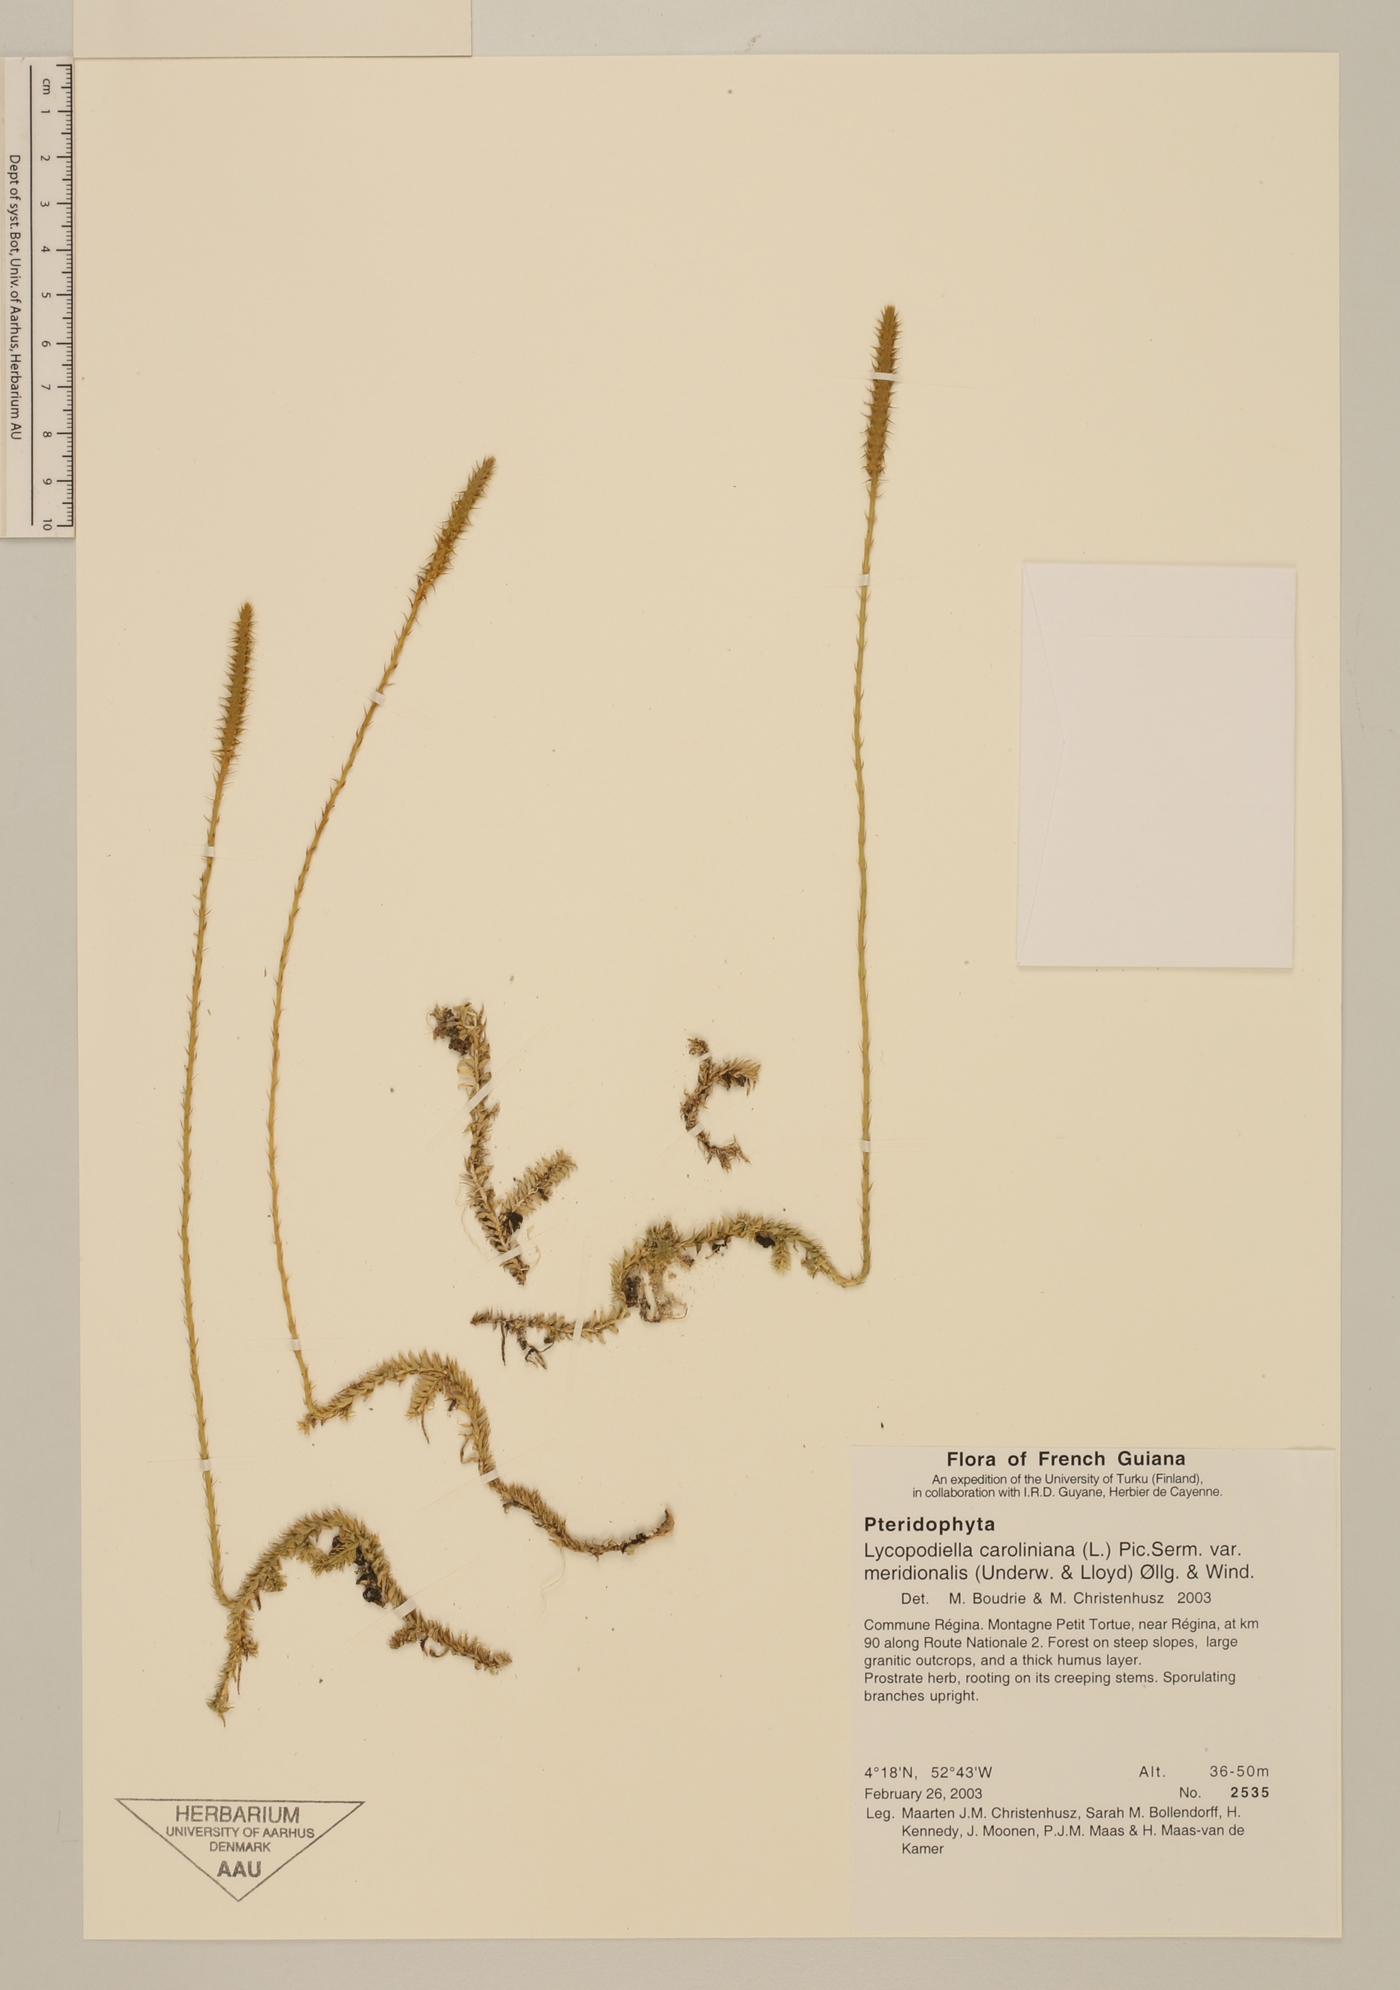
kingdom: Plantae
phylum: Tracheophyta
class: Lycopodiopsida
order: Lycopodiales
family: Lycopodiaceae
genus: Pseudolycopodiella
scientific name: Pseudolycopodiella meridionalis
